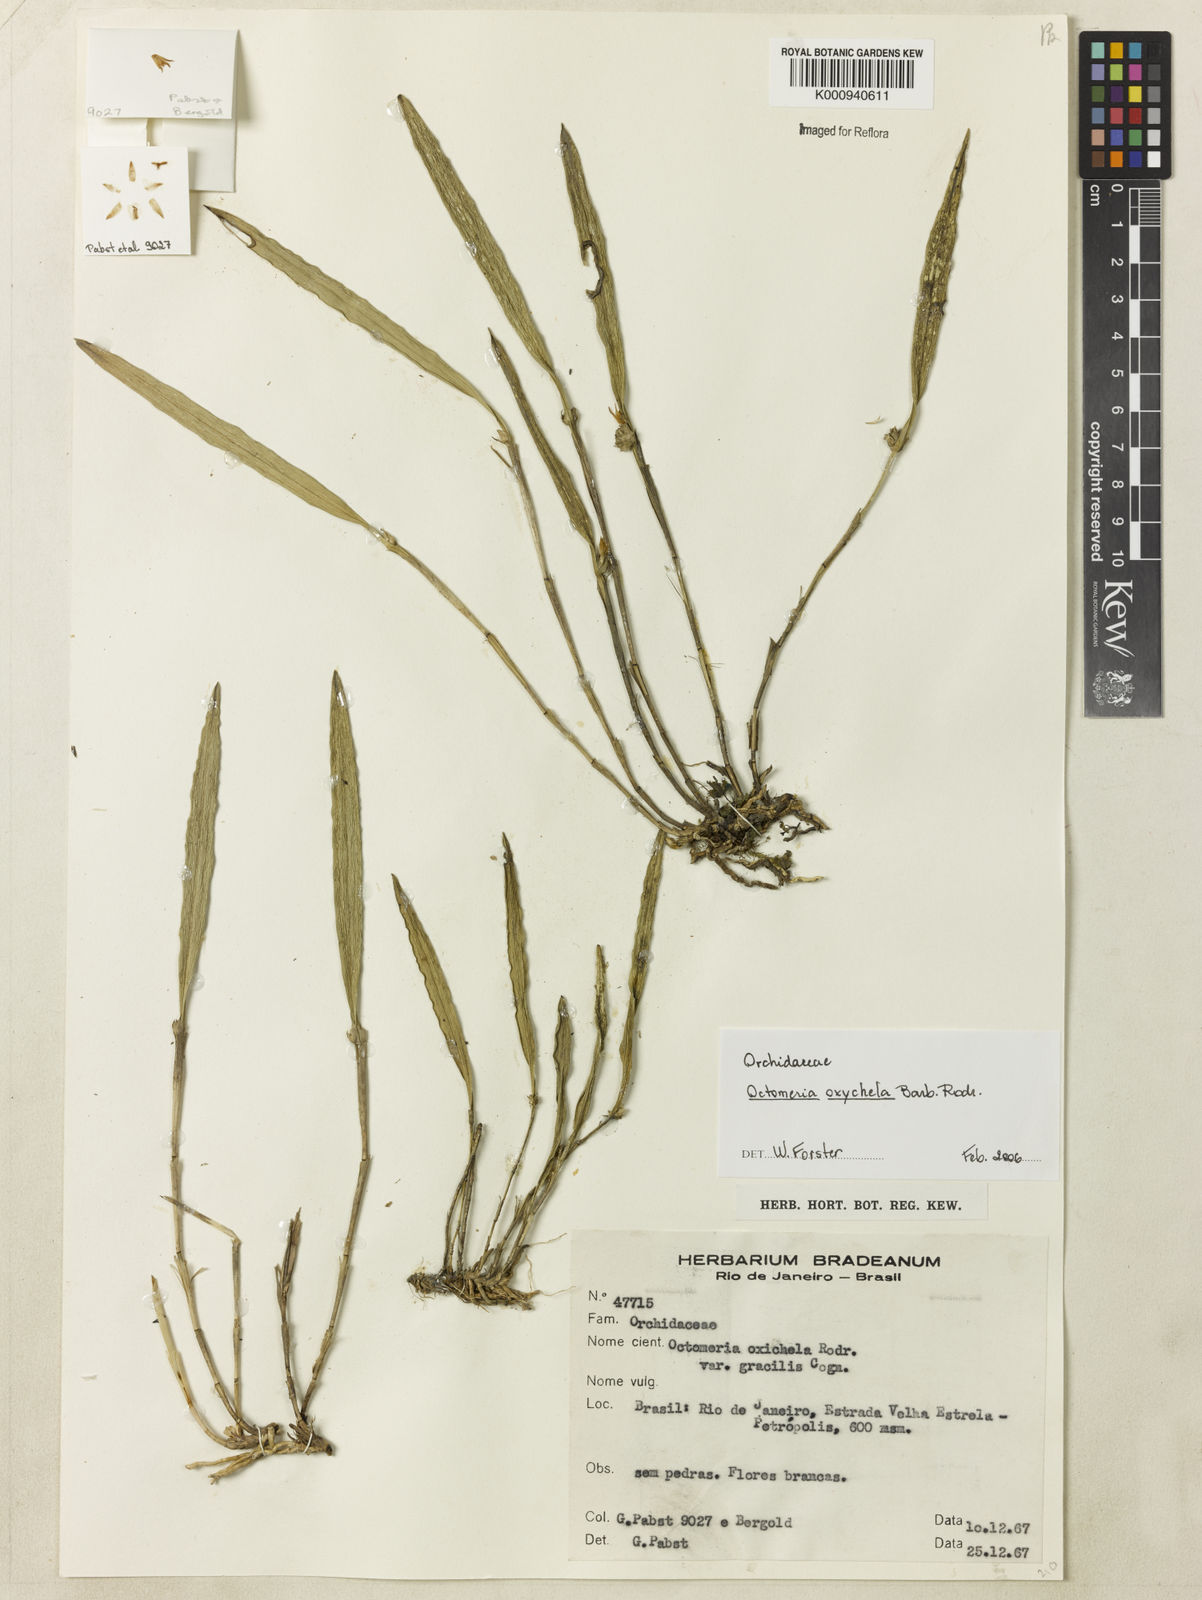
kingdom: Plantae
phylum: Tracheophyta
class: Liliopsida
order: Asparagales
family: Orchidaceae
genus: Octomeria
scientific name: Octomeria oxychela
